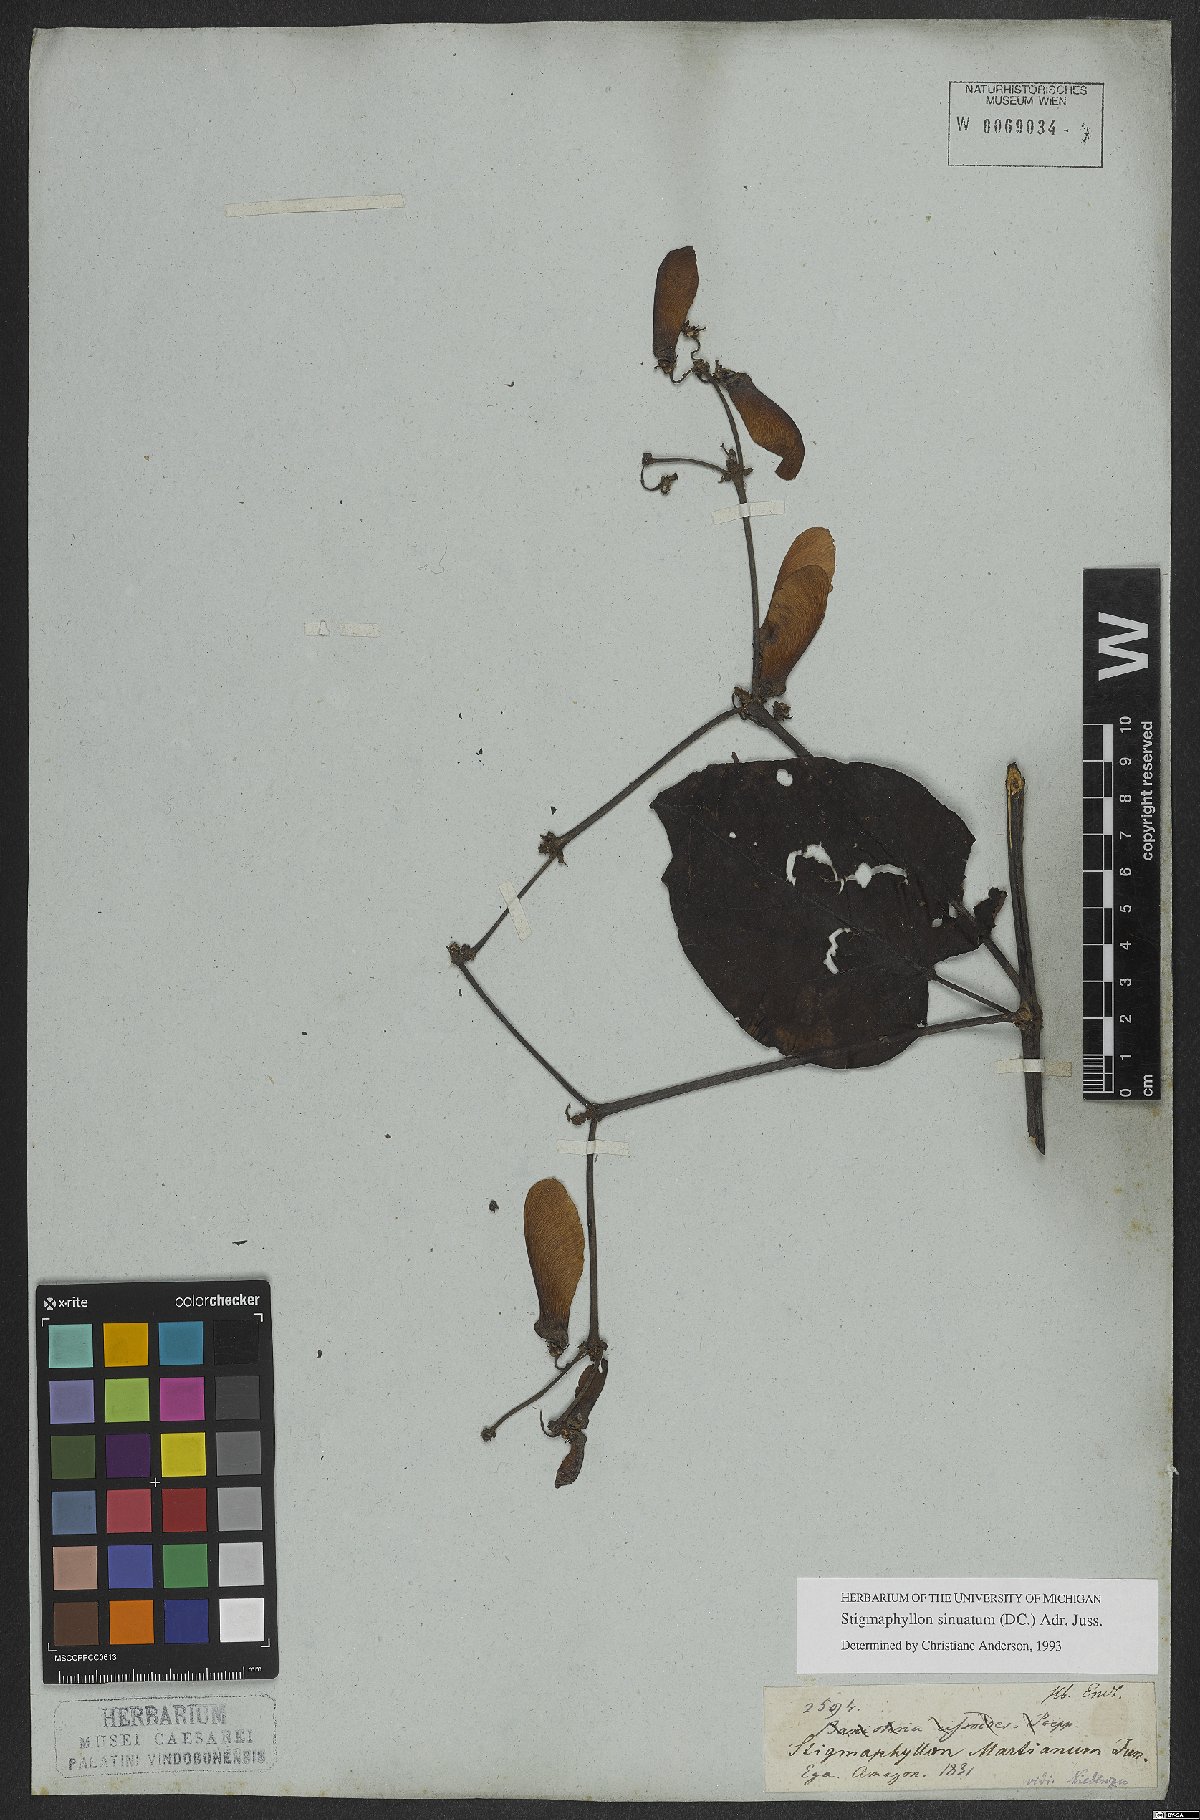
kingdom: Plantae
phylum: Tracheophyta
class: Magnoliopsida
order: Malpighiales
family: Malpighiaceae
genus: Stigmaphyllon
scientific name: Stigmaphyllon sinuatum
